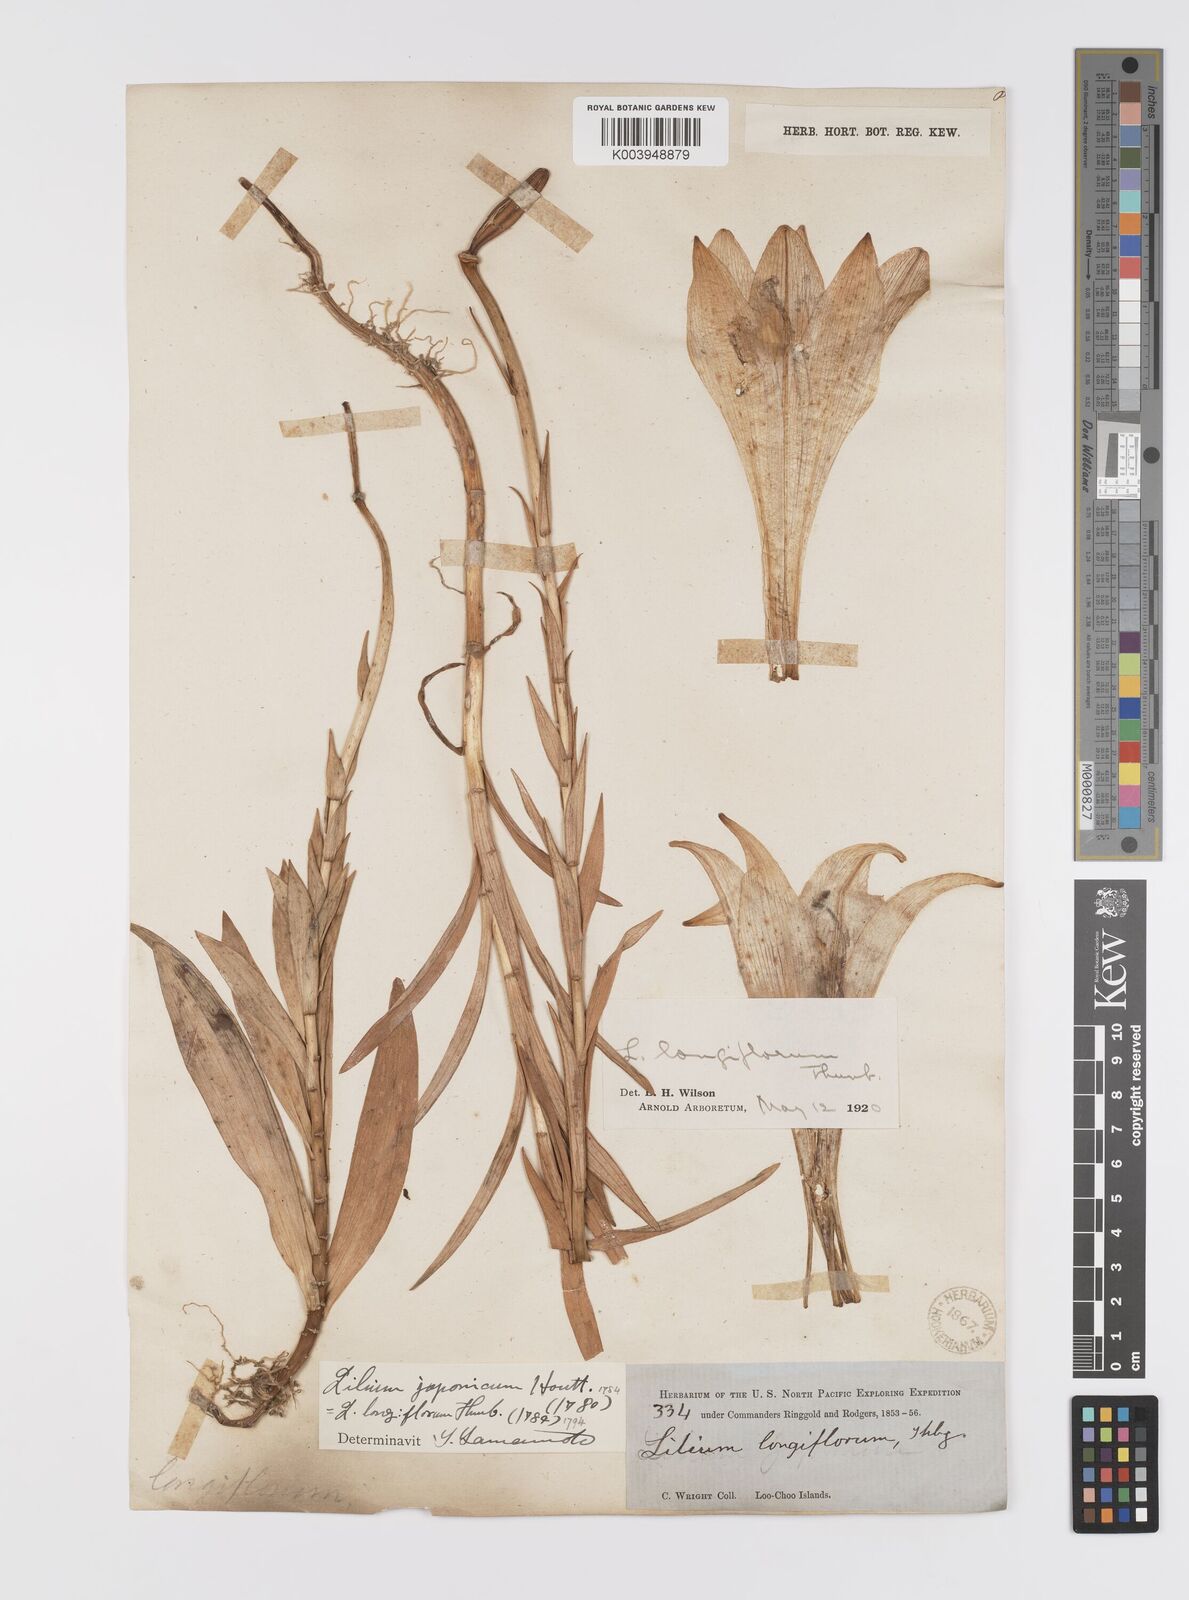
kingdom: Plantae
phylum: Tracheophyta
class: Liliopsida
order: Liliales
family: Liliaceae
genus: Lilium
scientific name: Lilium longiflorum
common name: Easter lily
